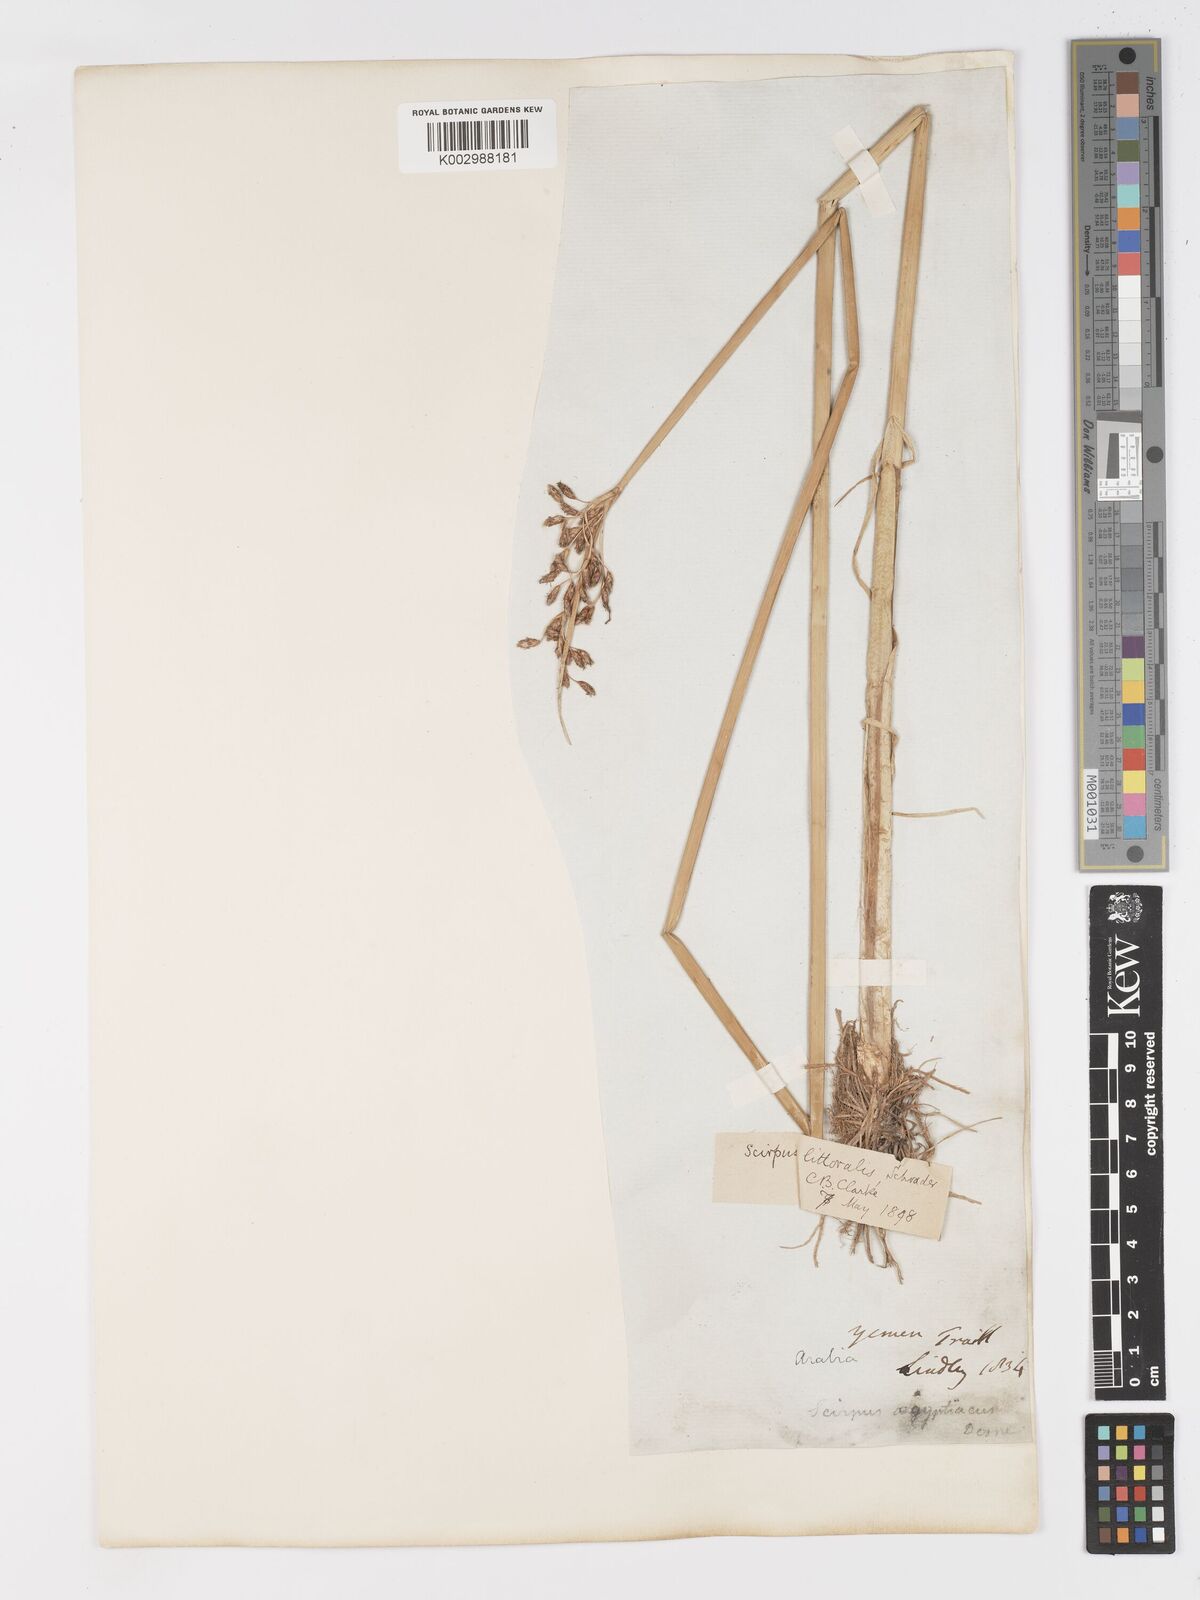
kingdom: Plantae
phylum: Tracheophyta
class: Liliopsida
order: Poales
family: Cyperaceae
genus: Schoenoplectus
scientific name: Schoenoplectus litoralis
